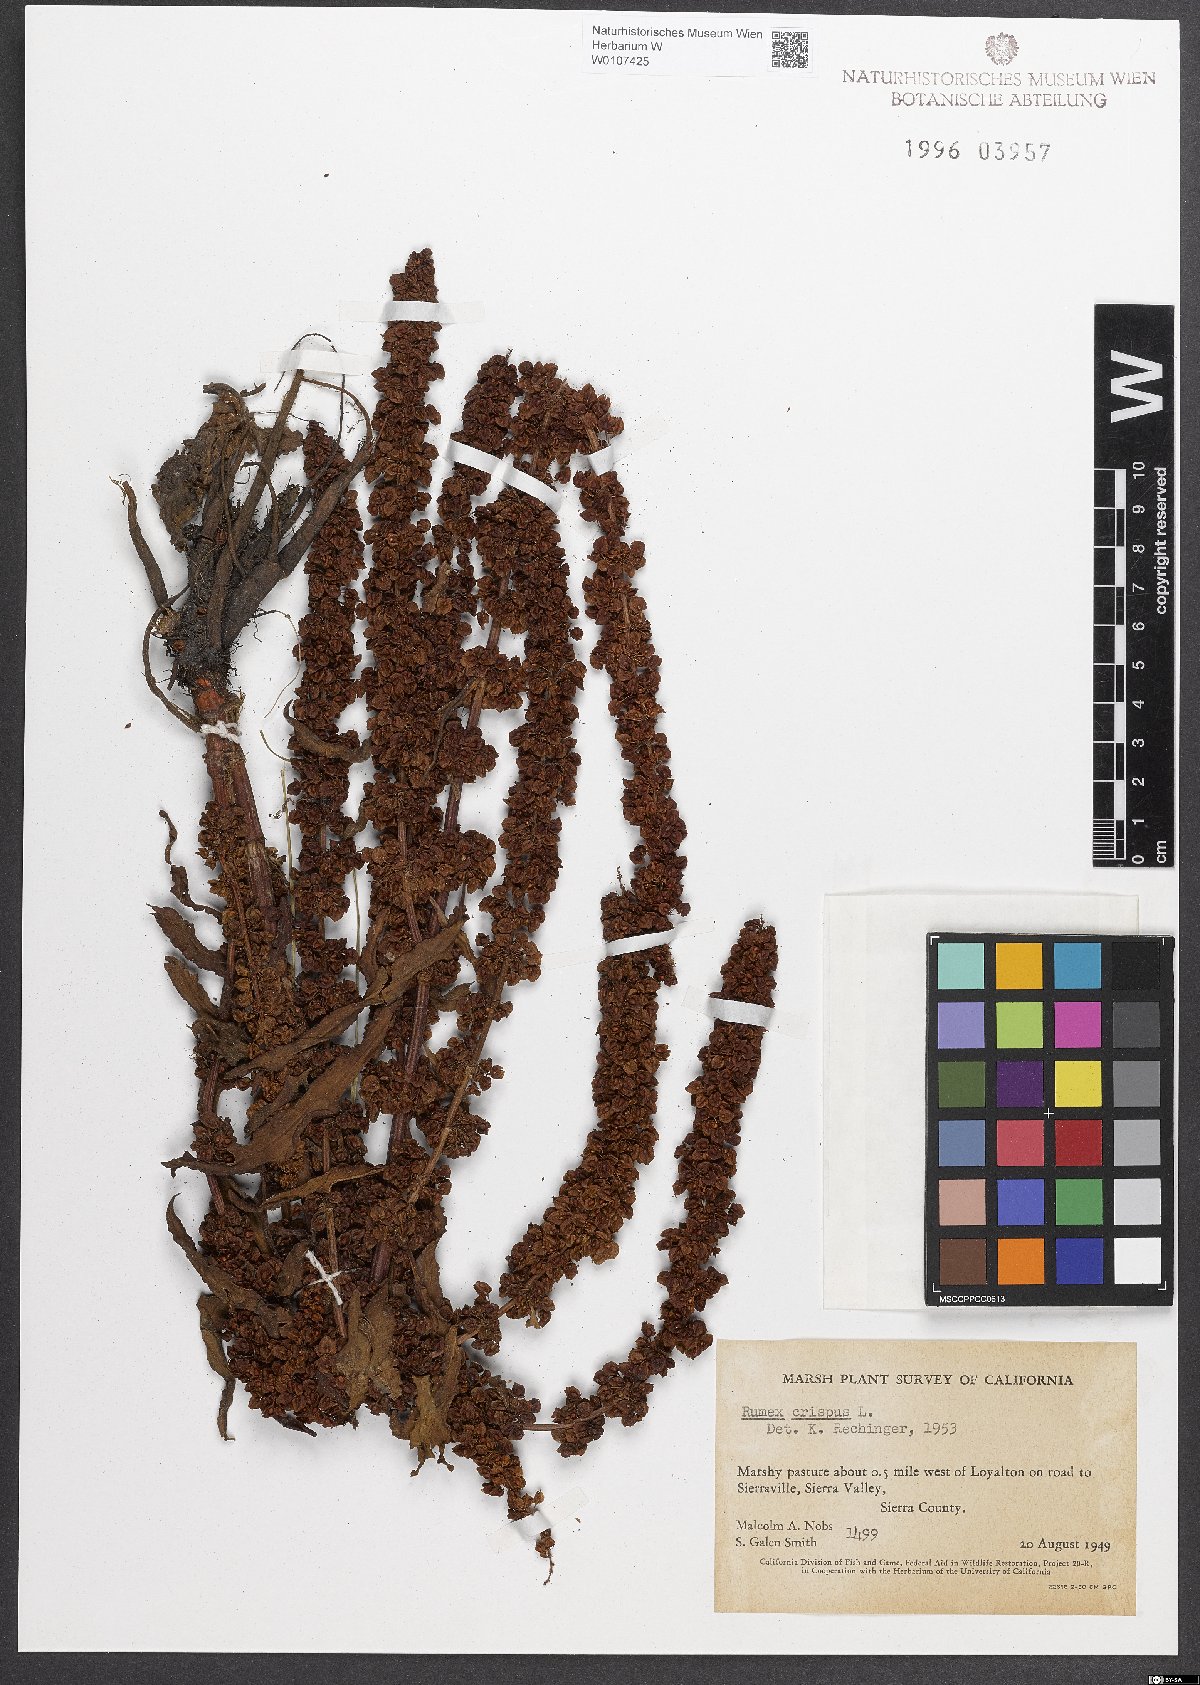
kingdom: Plantae
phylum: Tracheophyta
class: Magnoliopsida
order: Caryophyllales
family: Polygonaceae
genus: Rumex
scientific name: Rumex crispus
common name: Curled dock
